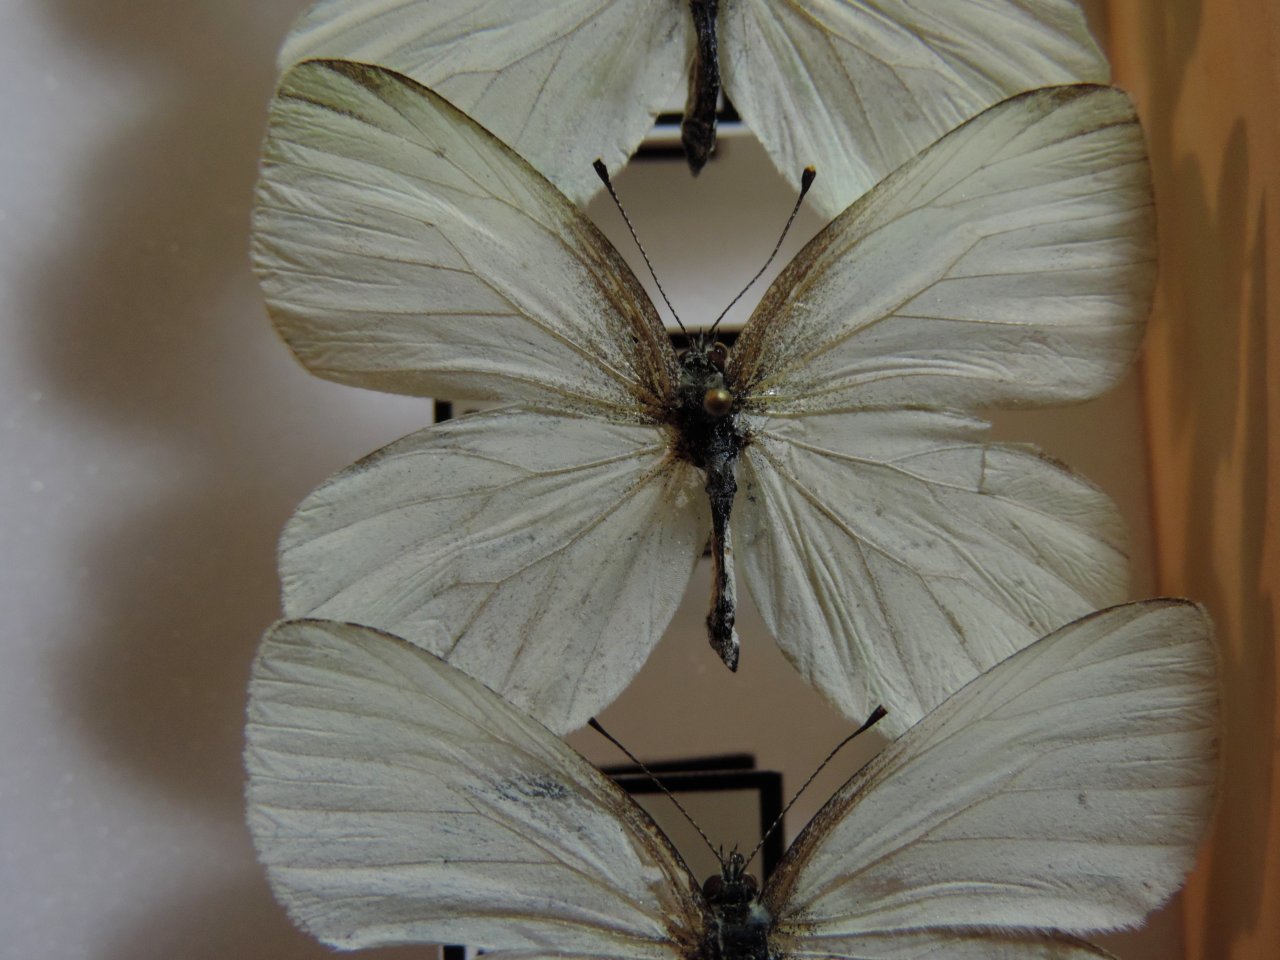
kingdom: Animalia
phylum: Arthropoda
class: Insecta
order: Lepidoptera
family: Pieridae
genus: Pieris
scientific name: Pieris oleracea
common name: Mustard White
